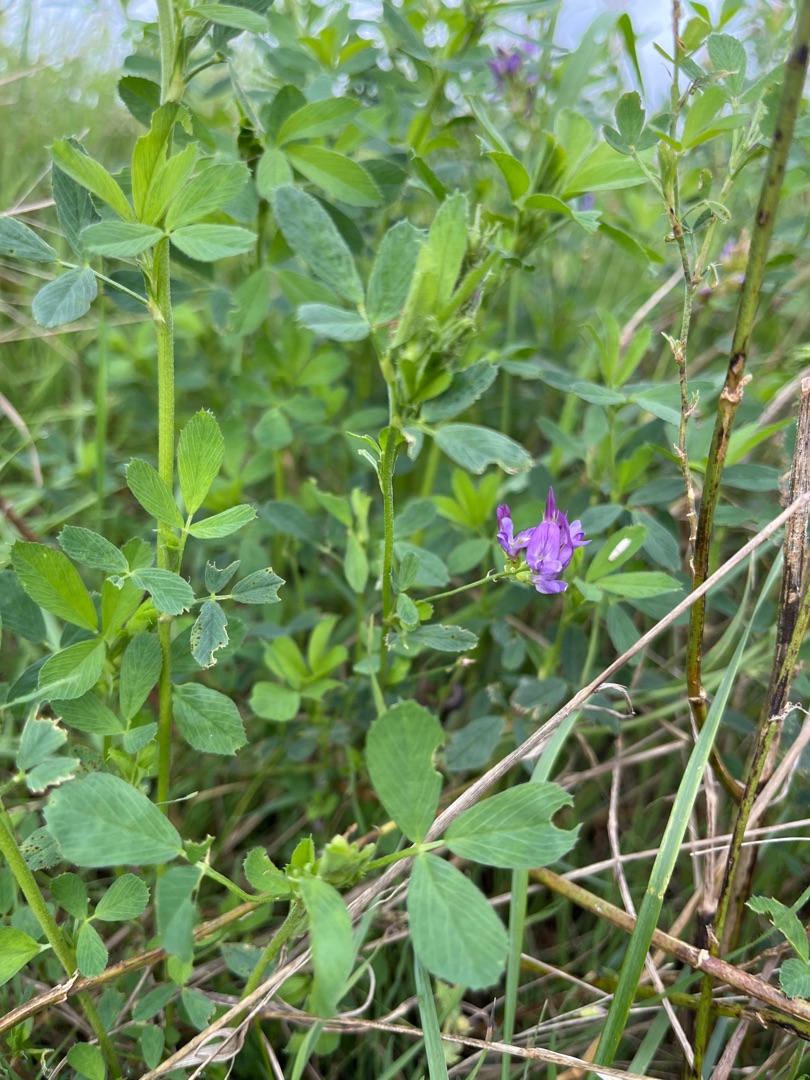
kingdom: Plantae
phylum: Tracheophyta
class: Magnoliopsida
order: Fabales
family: Fabaceae
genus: Medicago
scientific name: Medicago sativa
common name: Lucerne
